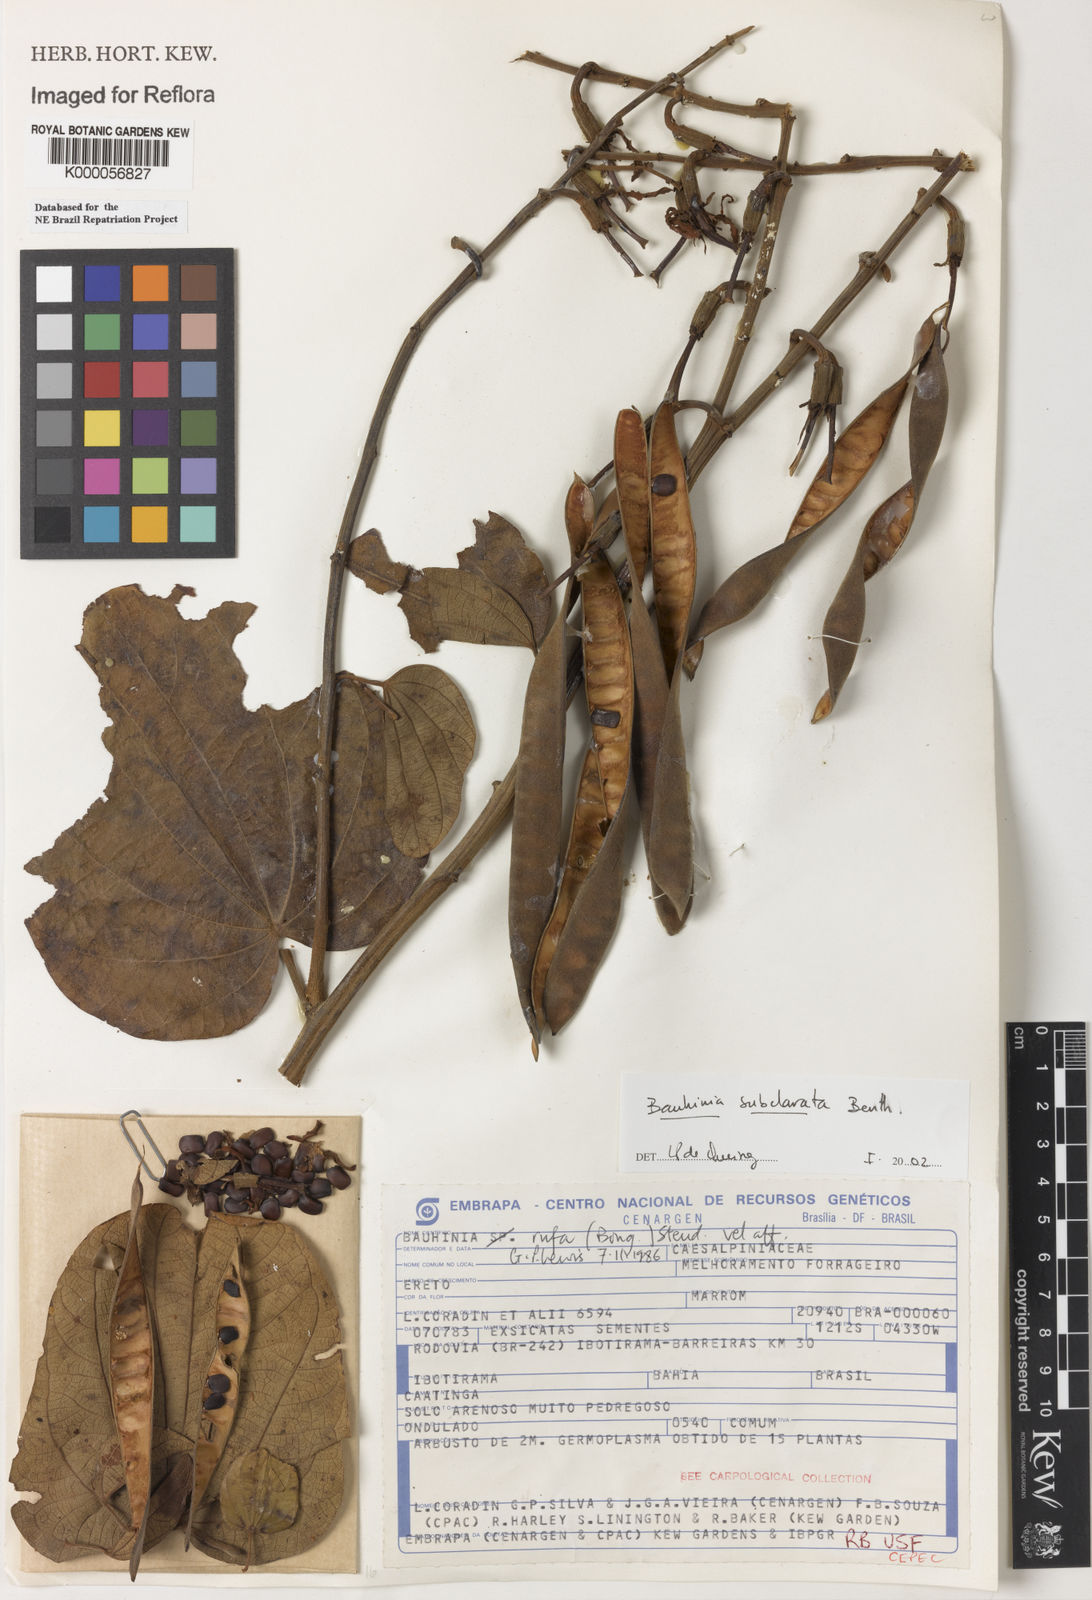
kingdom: Plantae
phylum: Tracheophyta
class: Magnoliopsida
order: Fabales
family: Fabaceae
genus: Bauhinia
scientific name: Bauhinia subclavata
